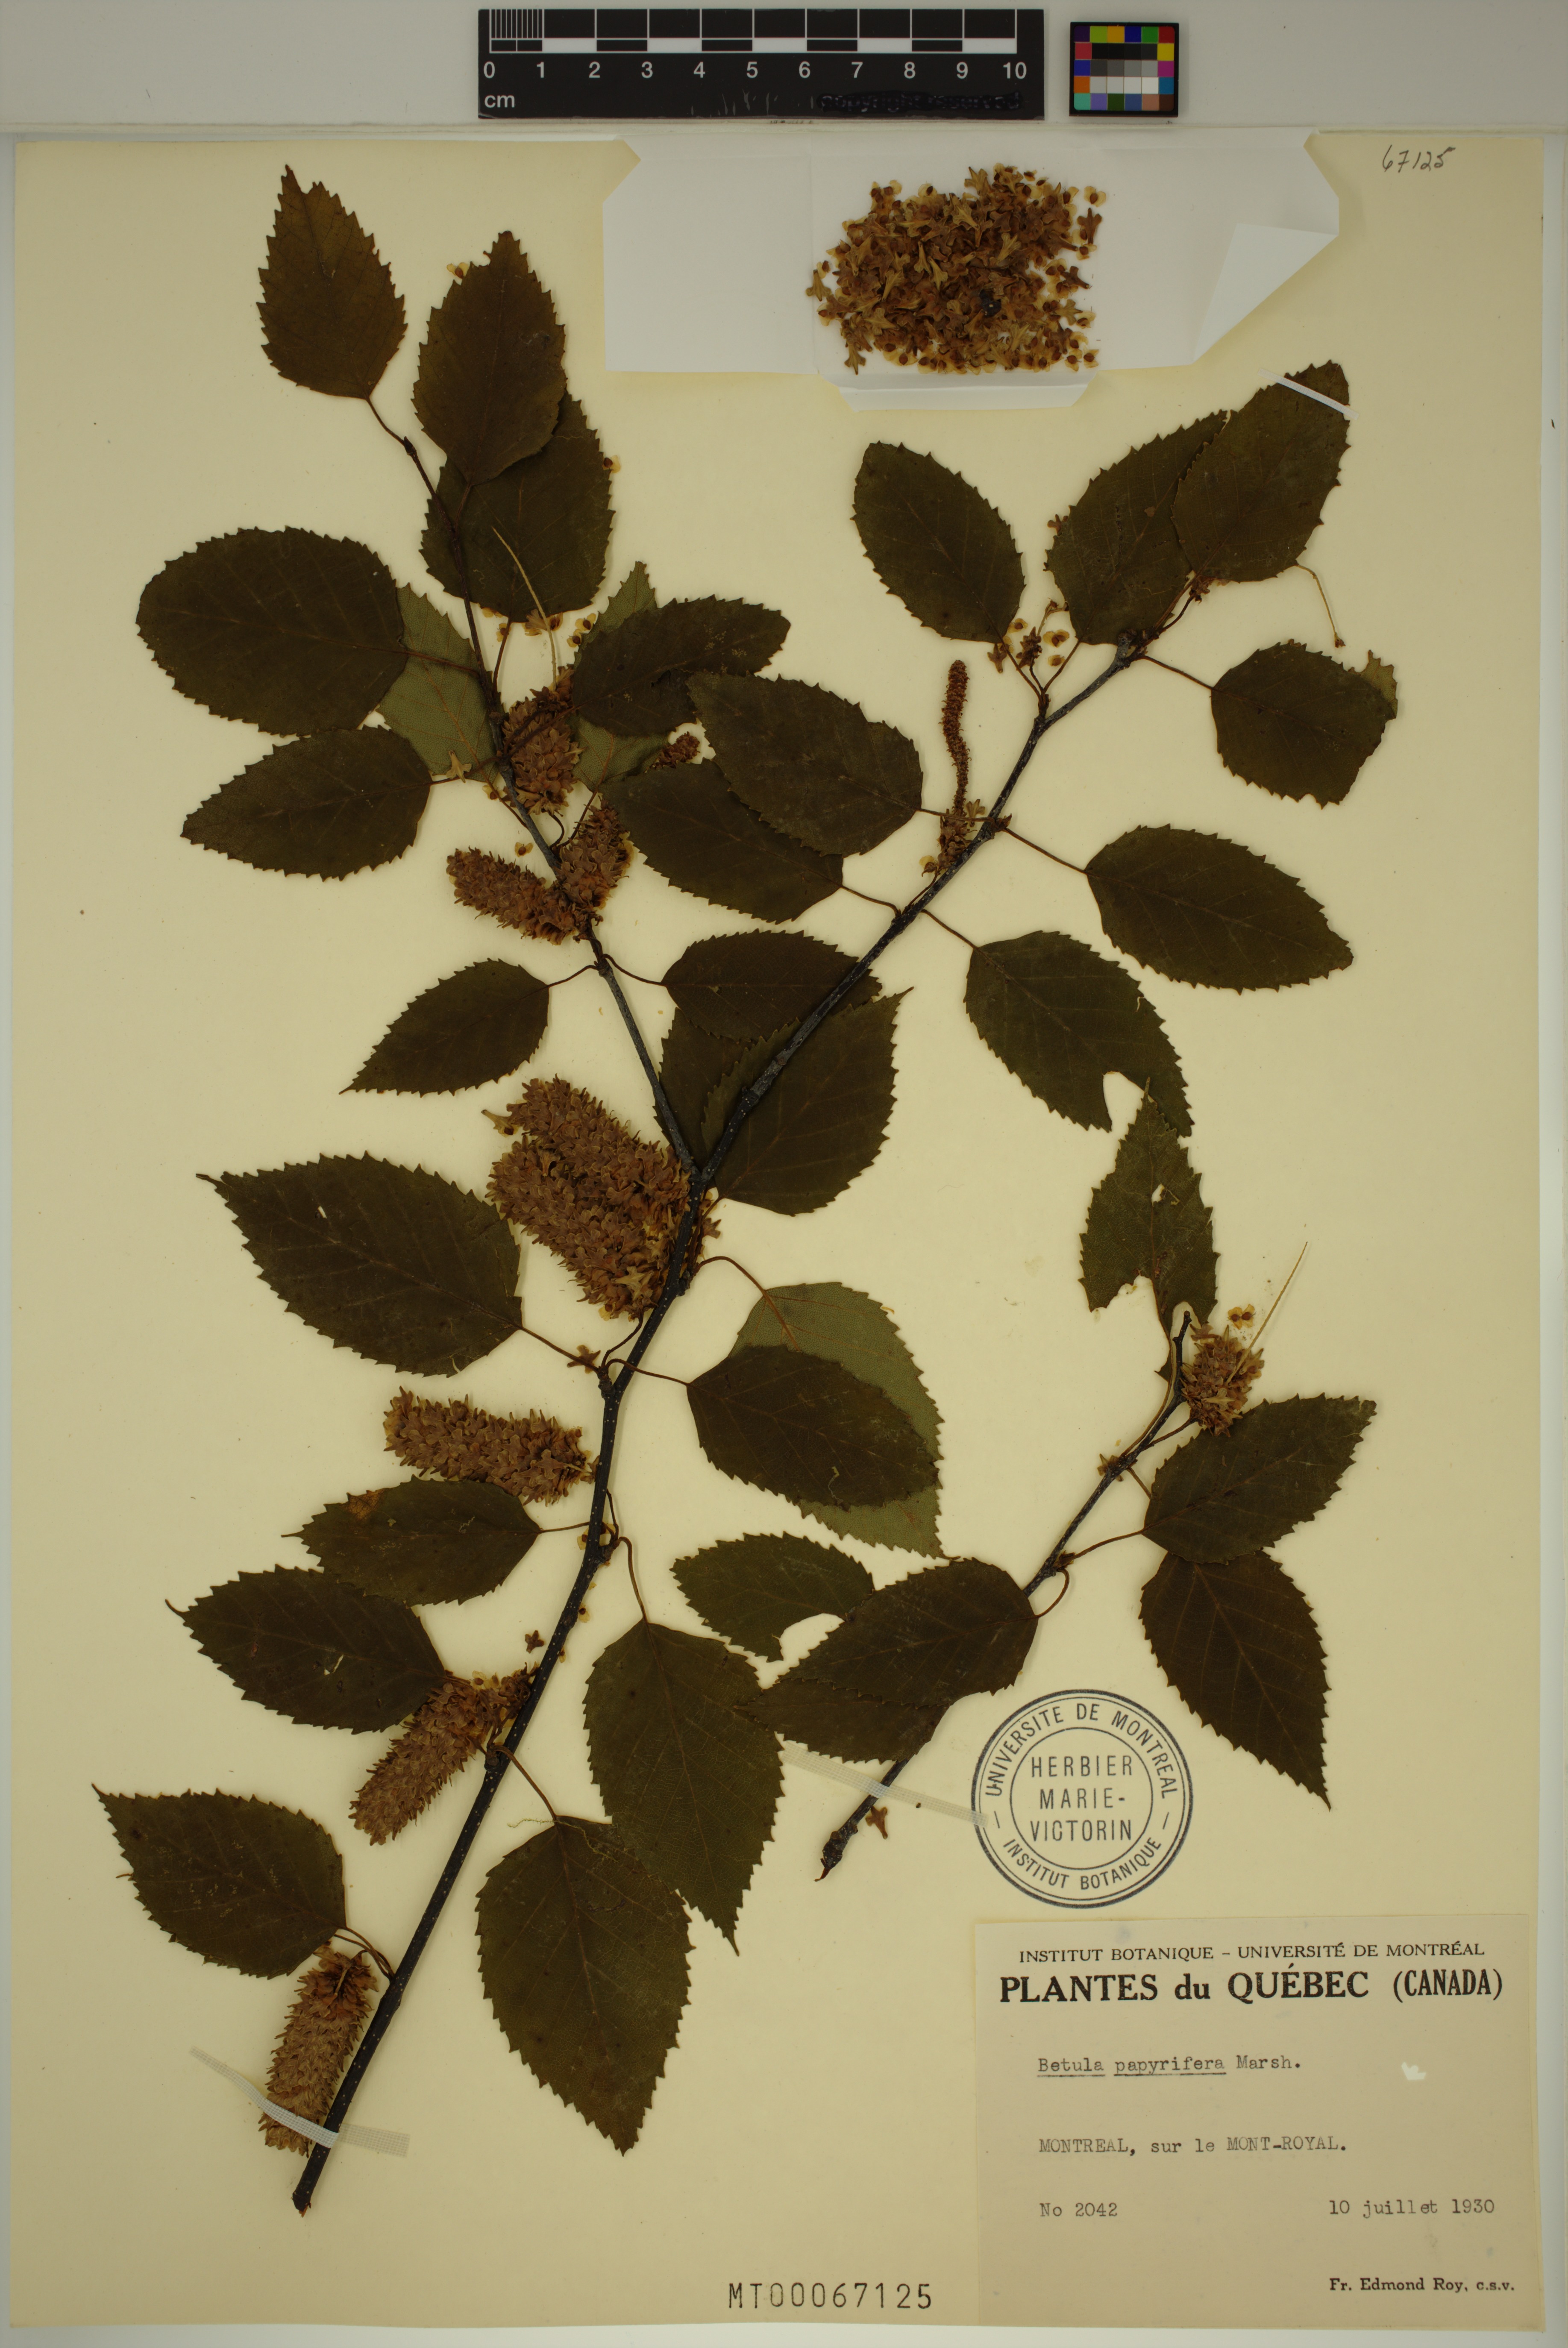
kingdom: Plantae
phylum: Tracheophyta
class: Magnoliopsida
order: Fagales
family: Betulaceae
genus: Betula
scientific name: Betula papyrifera
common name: Paper birch
